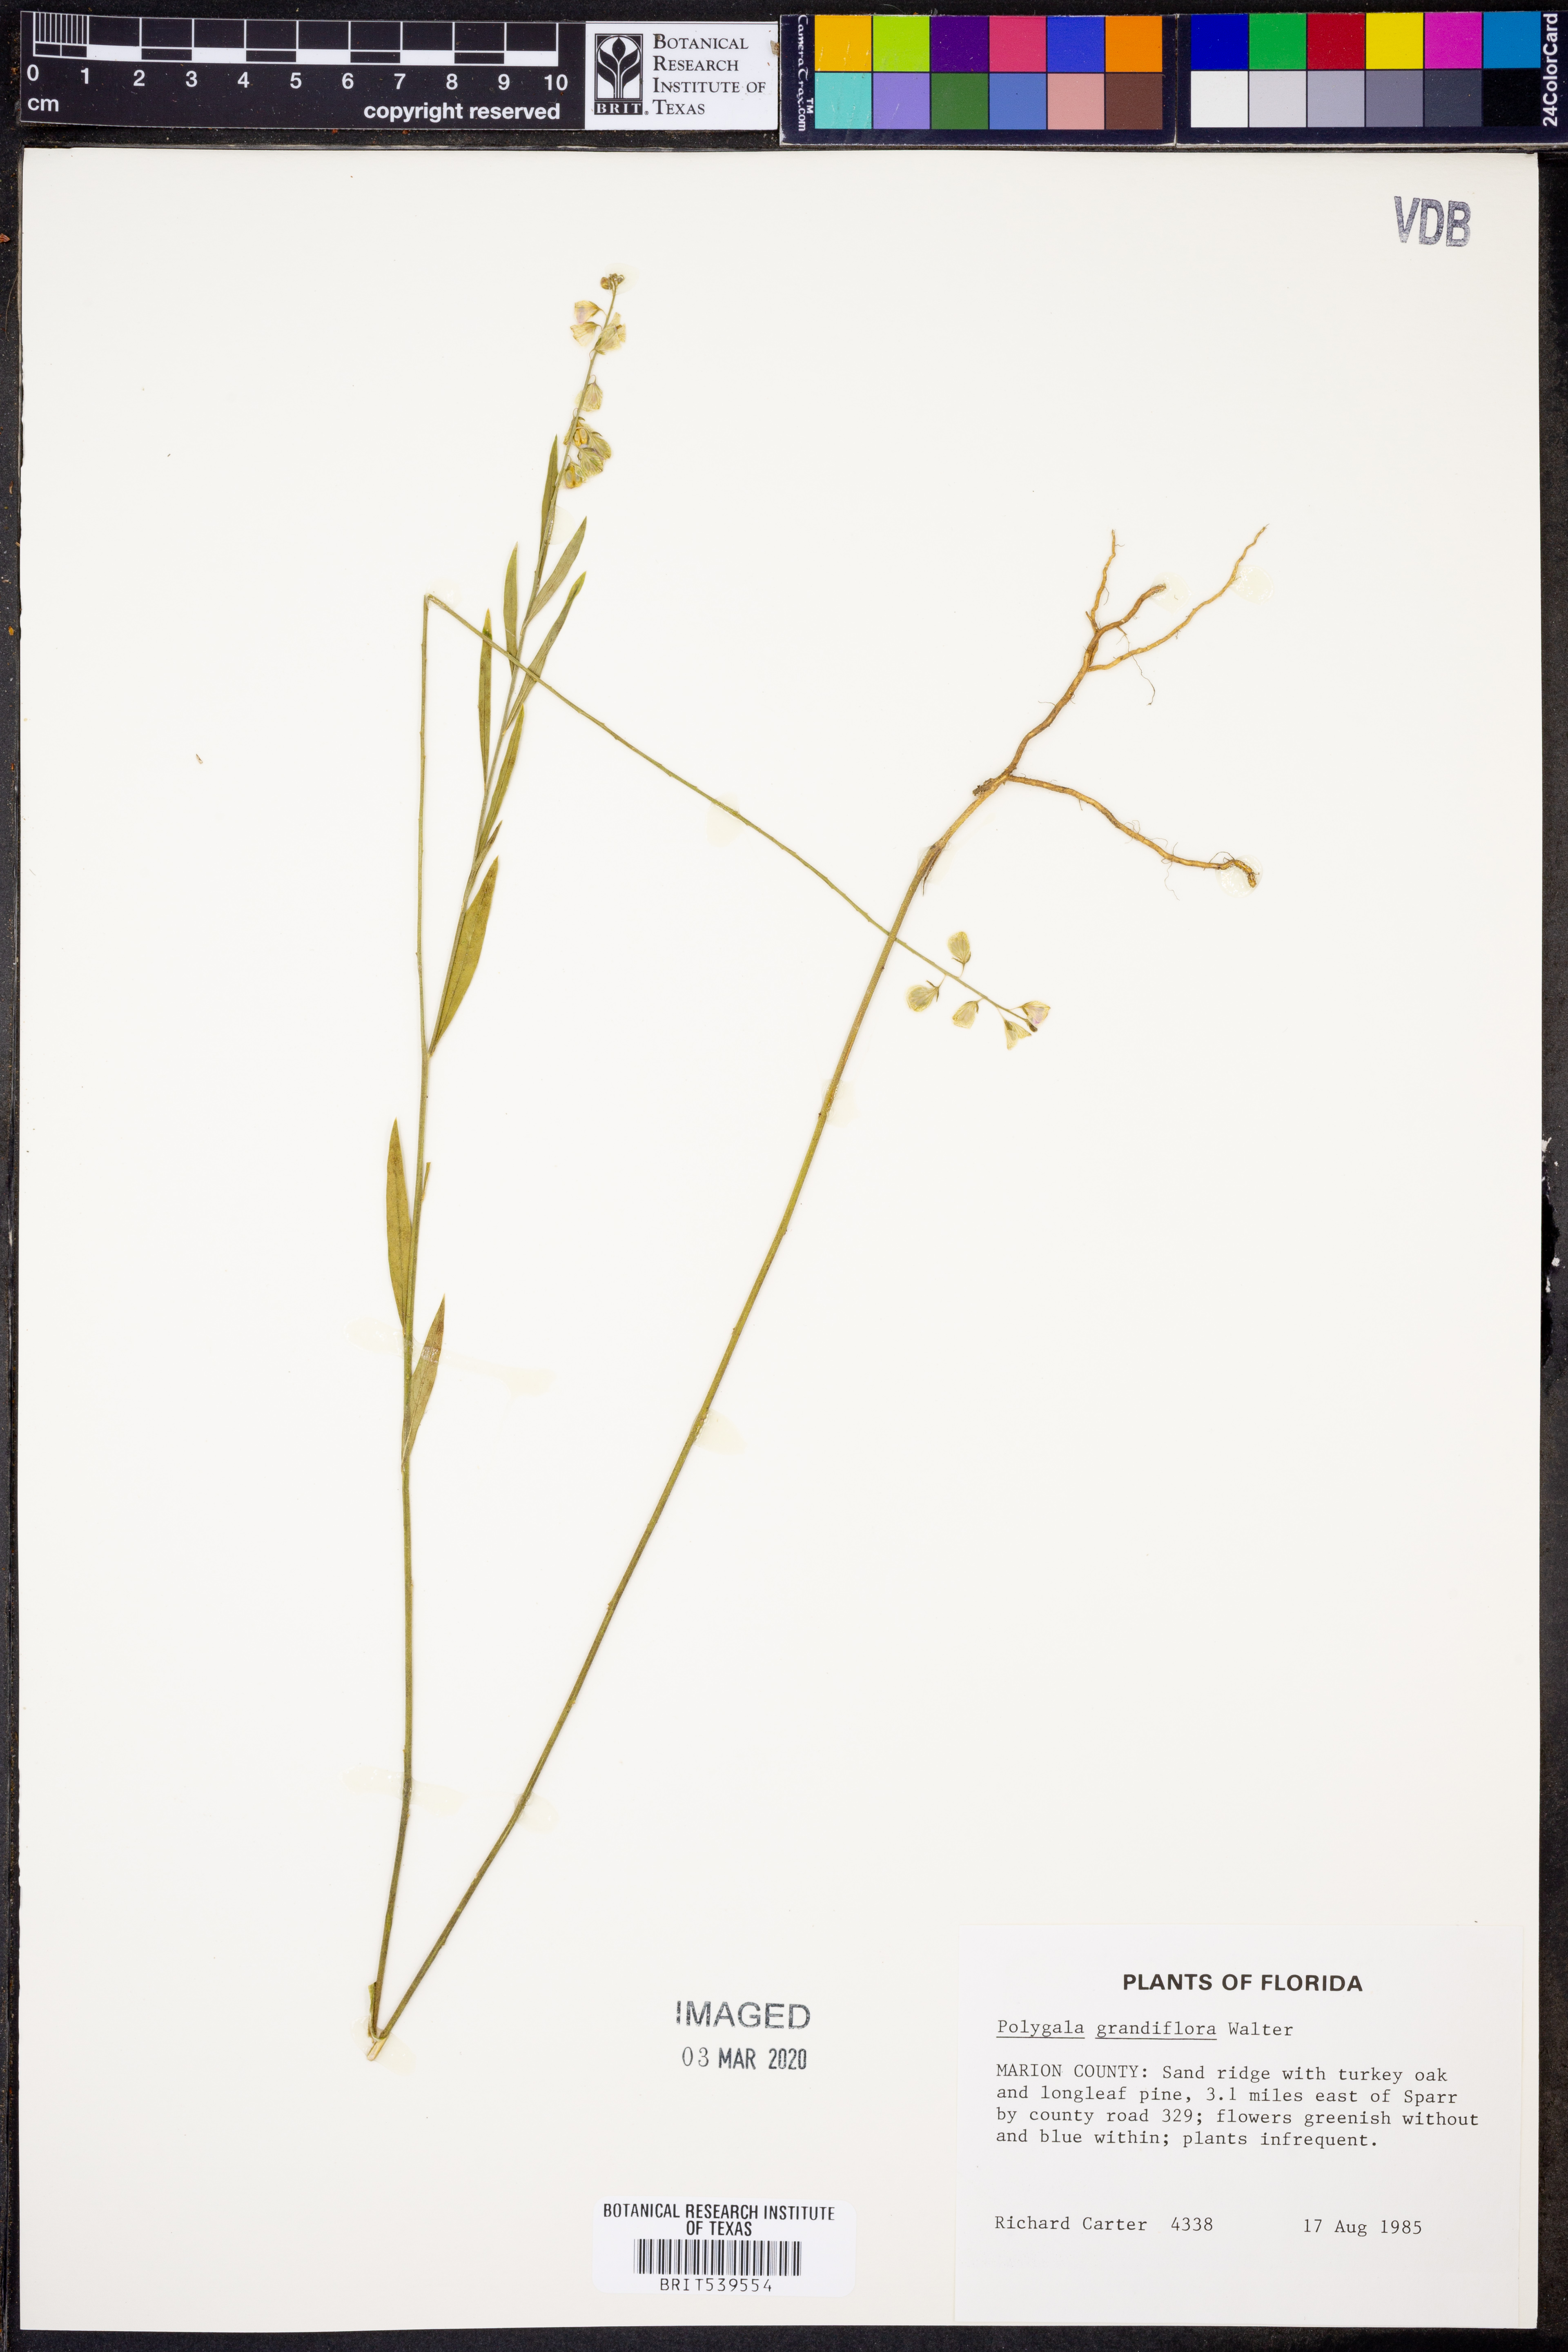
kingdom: Plantae
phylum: Tracheophyta
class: Magnoliopsida
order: Fabales
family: Polygalaceae
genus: Asemeia
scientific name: Asemeia grandiflora
